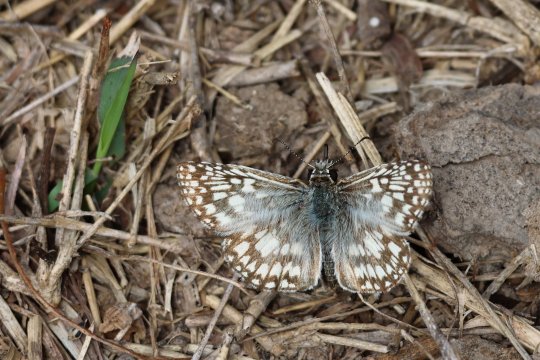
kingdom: Animalia
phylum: Arthropoda
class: Insecta
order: Lepidoptera
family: Hesperiidae
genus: Pyrgus
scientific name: Pyrgus oileus
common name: Desert Checkered-Skipper
